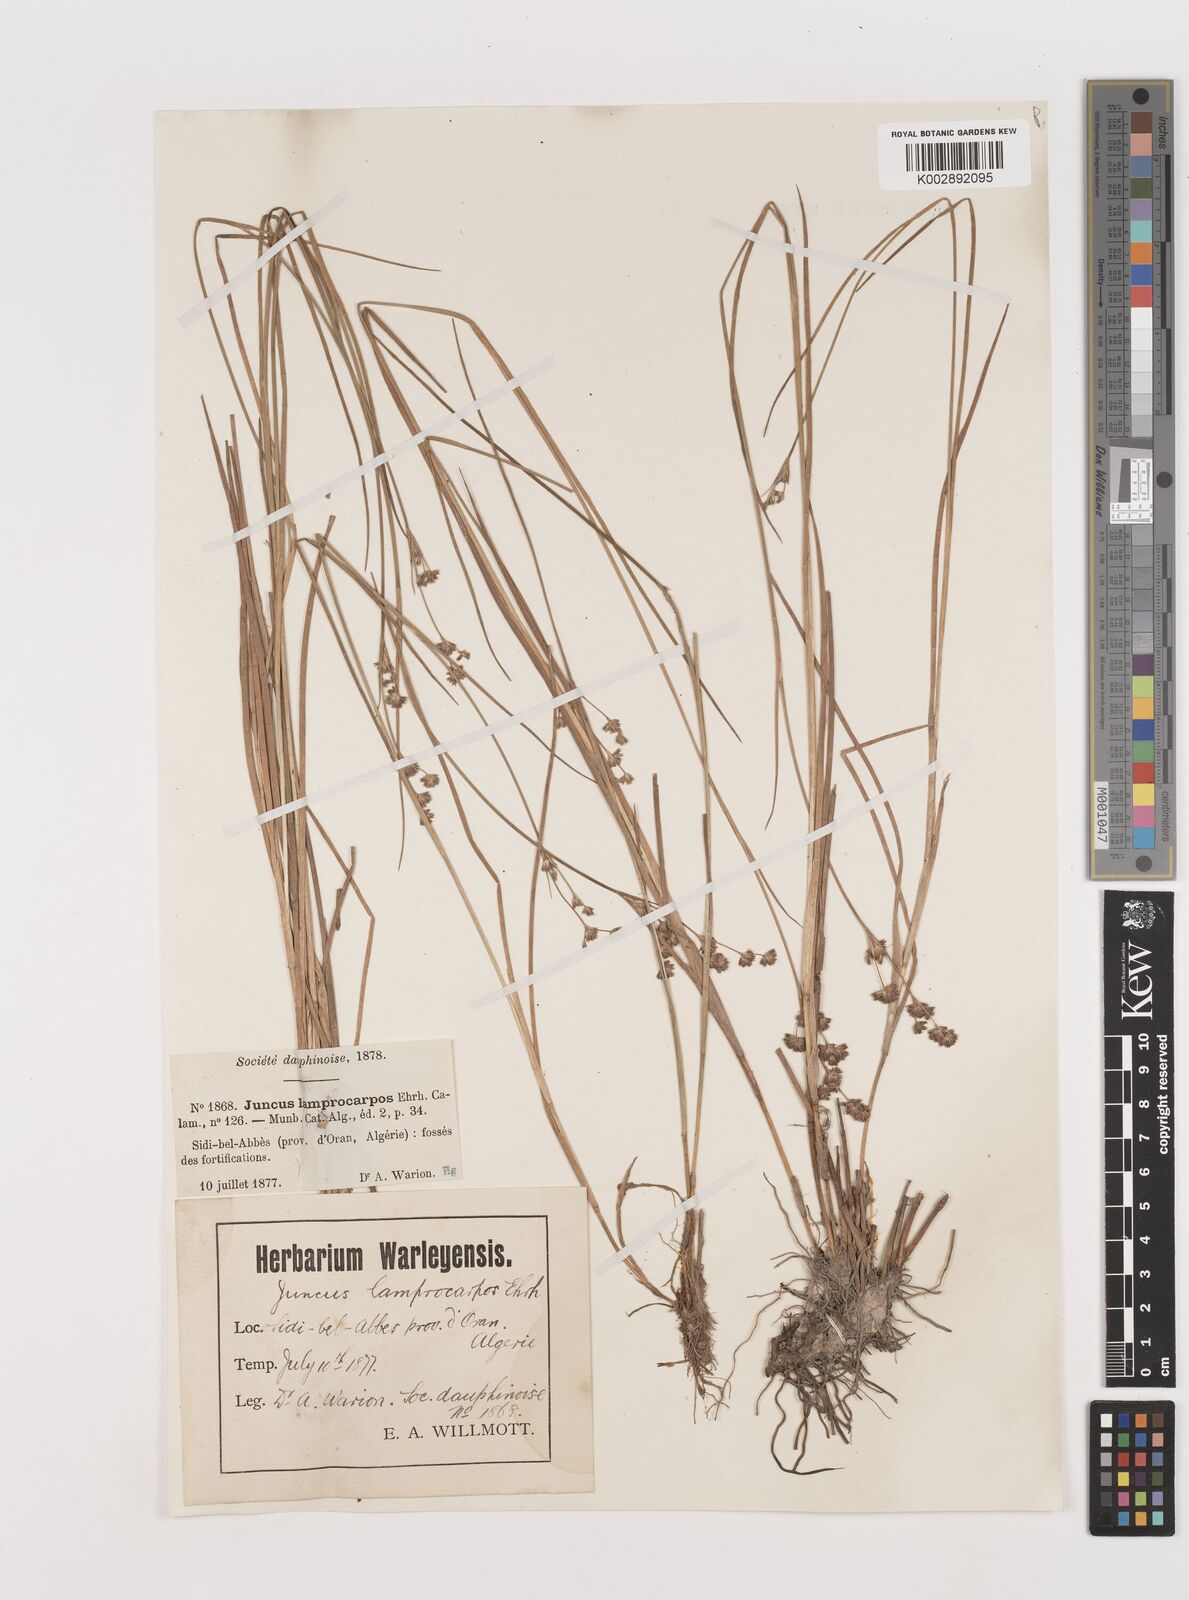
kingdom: Plantae
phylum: Tracheophyta
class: Liliopsida
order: Poales
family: Juncaceae
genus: Juncus
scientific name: Juncus articulatus
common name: Jointed rush
